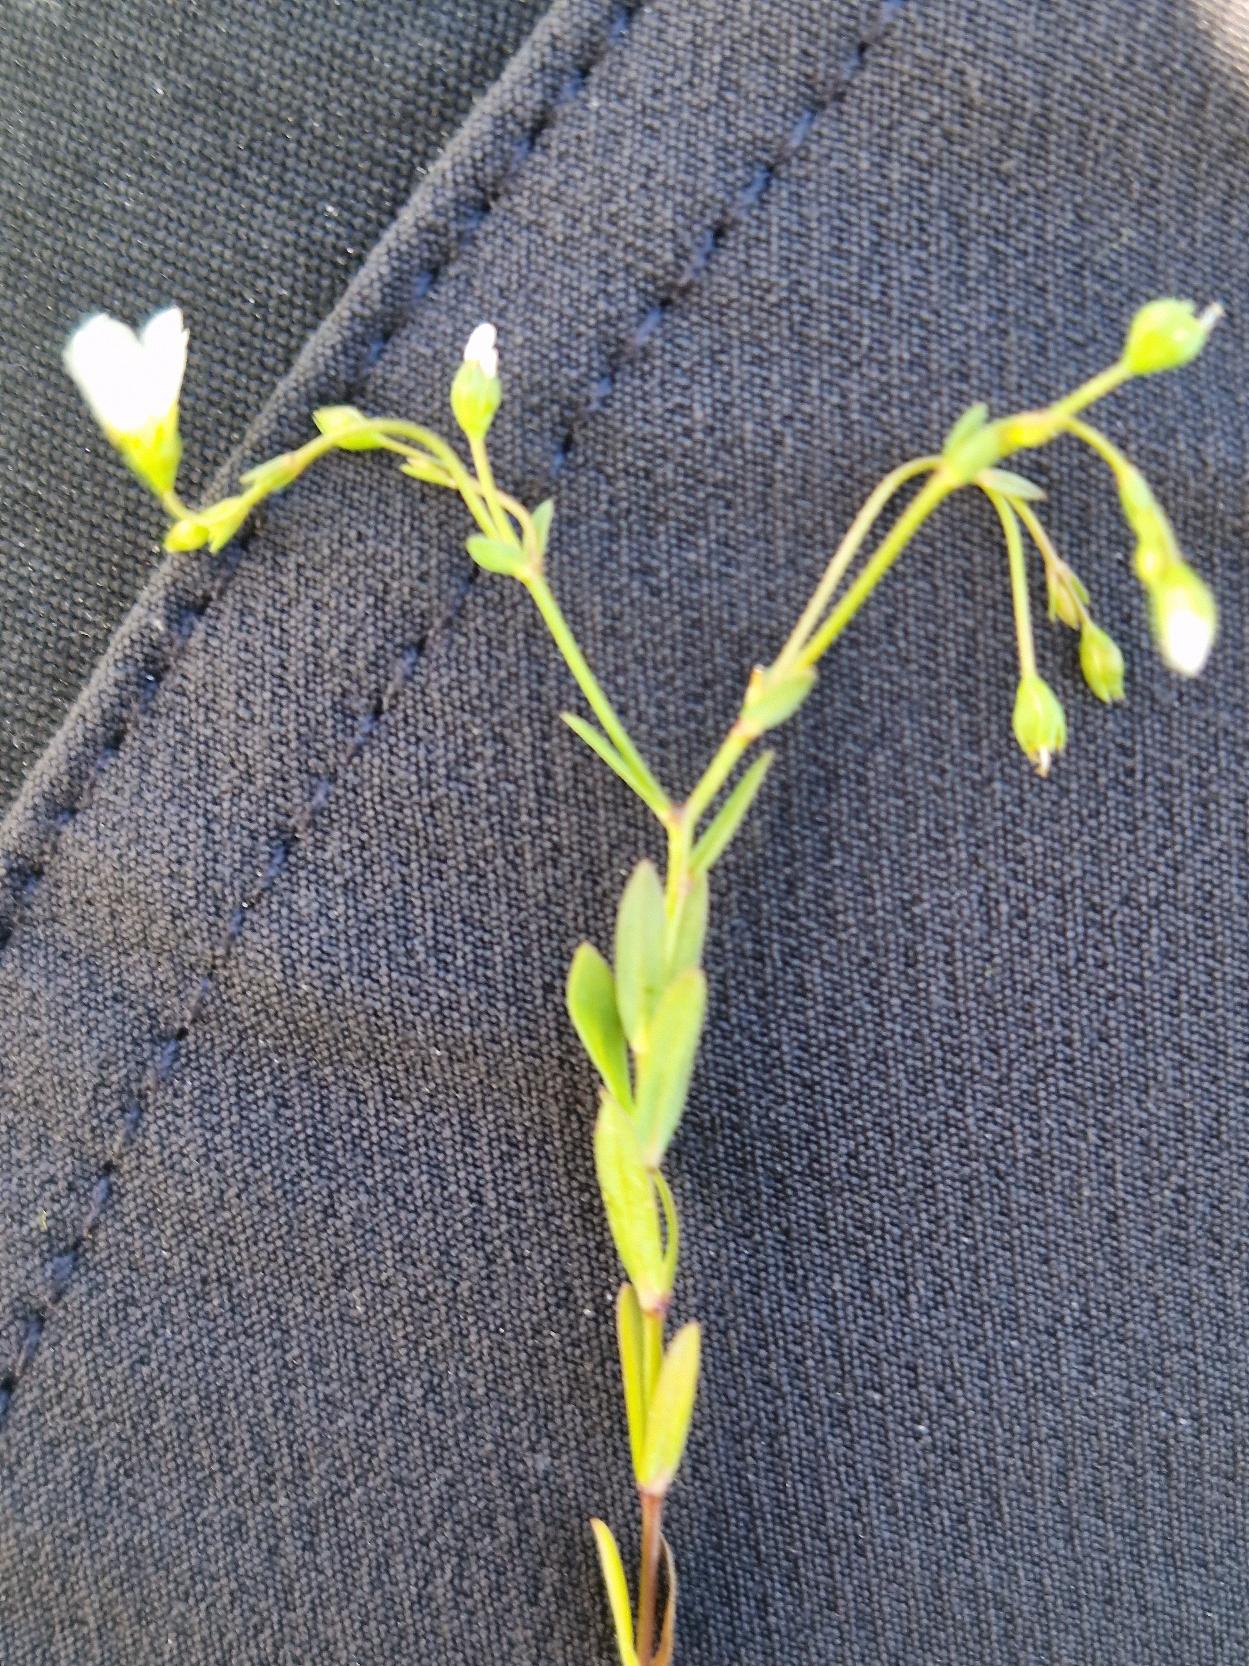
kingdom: Plantae
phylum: Tracheophyta
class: Magnoliopsida
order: Malpighiales
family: Linaceae
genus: Linum
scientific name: Linum catharticum
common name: Vild hør
